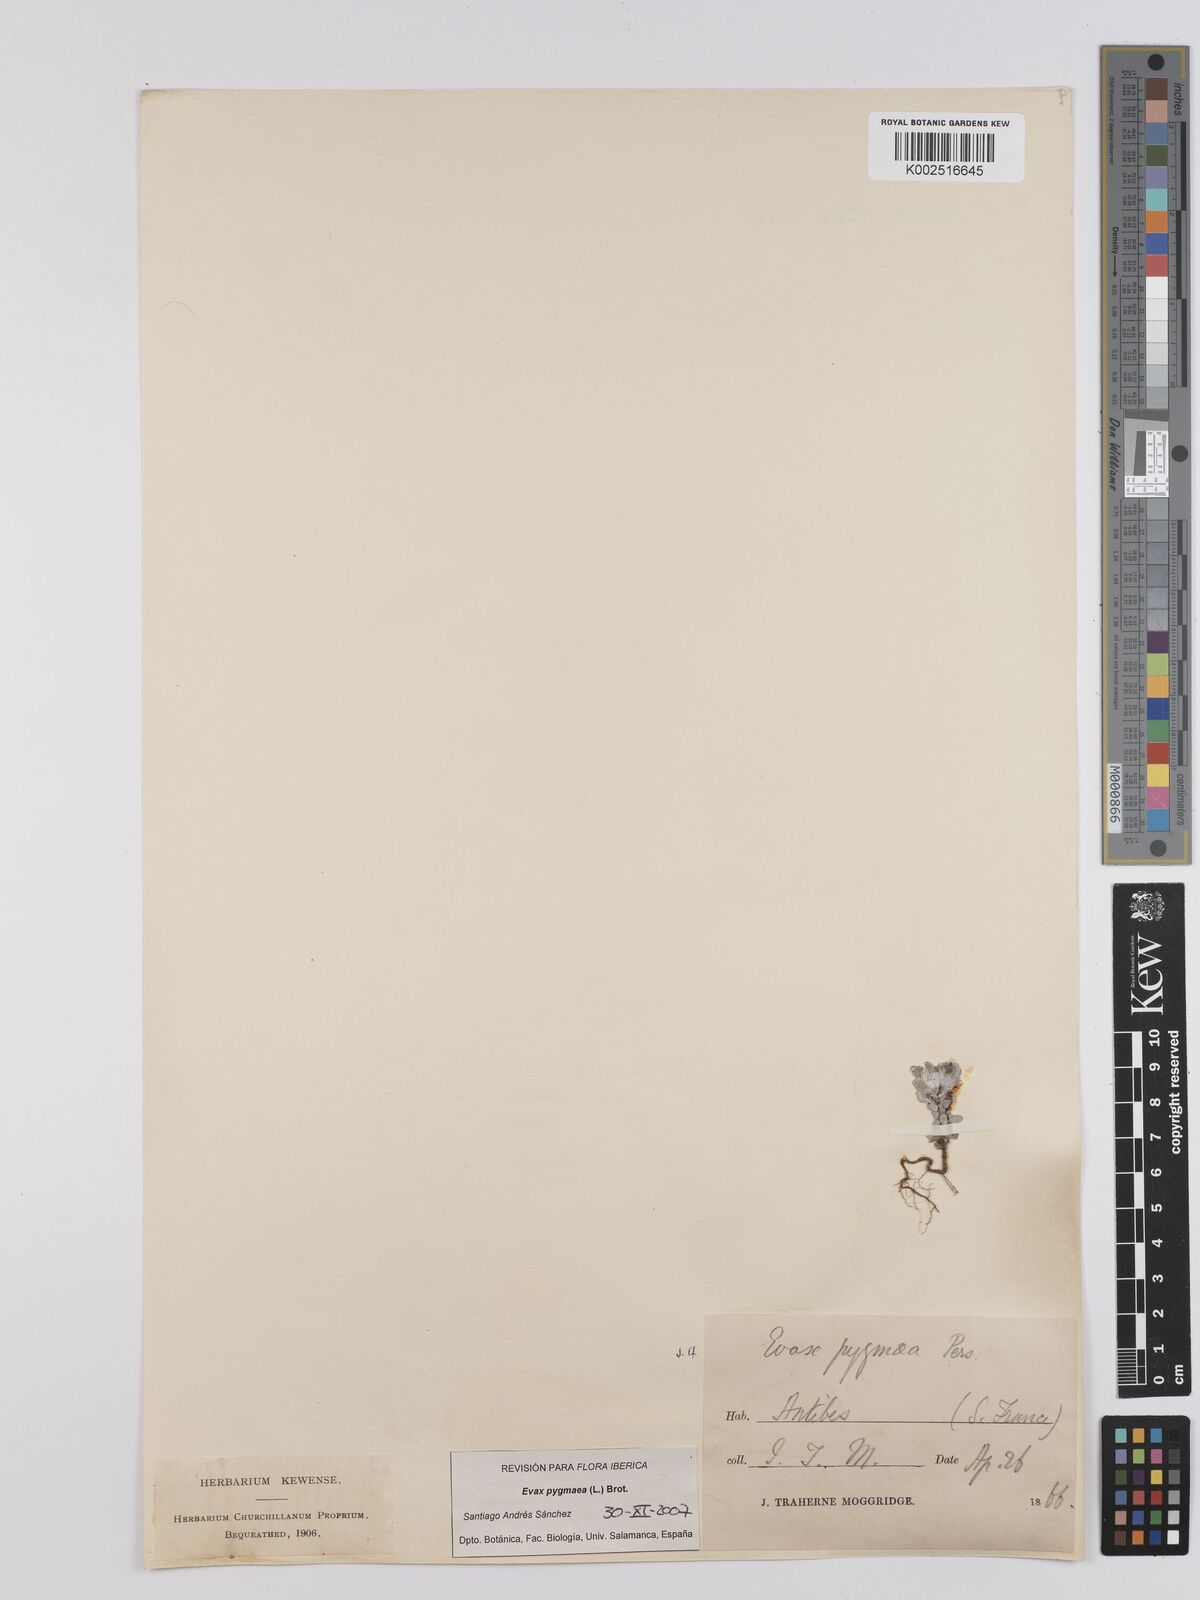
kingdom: Plantae
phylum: Tracheophyta
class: Magnoliopsida
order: Asterales
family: Asteraceae
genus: Filago
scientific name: Filago pygmaea
